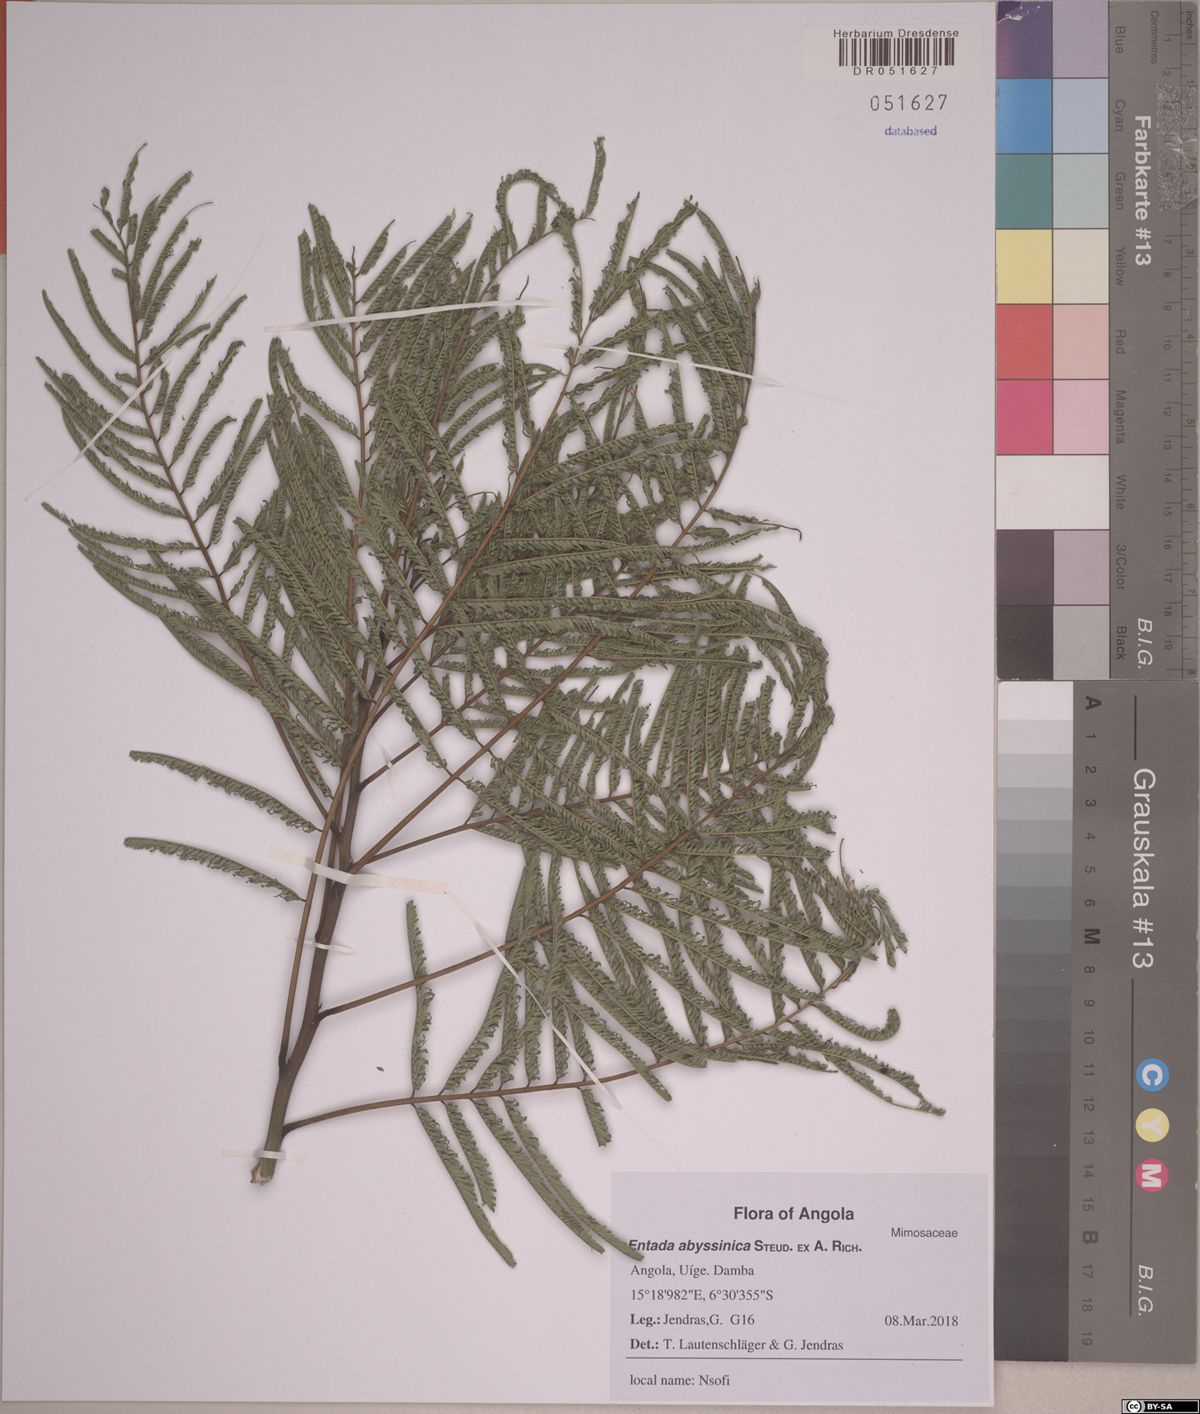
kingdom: Plantae
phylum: Tracheophyta
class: Magnoliopsida
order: Fabales
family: Fabaceae
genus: Entada
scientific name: Entada abyssinica
